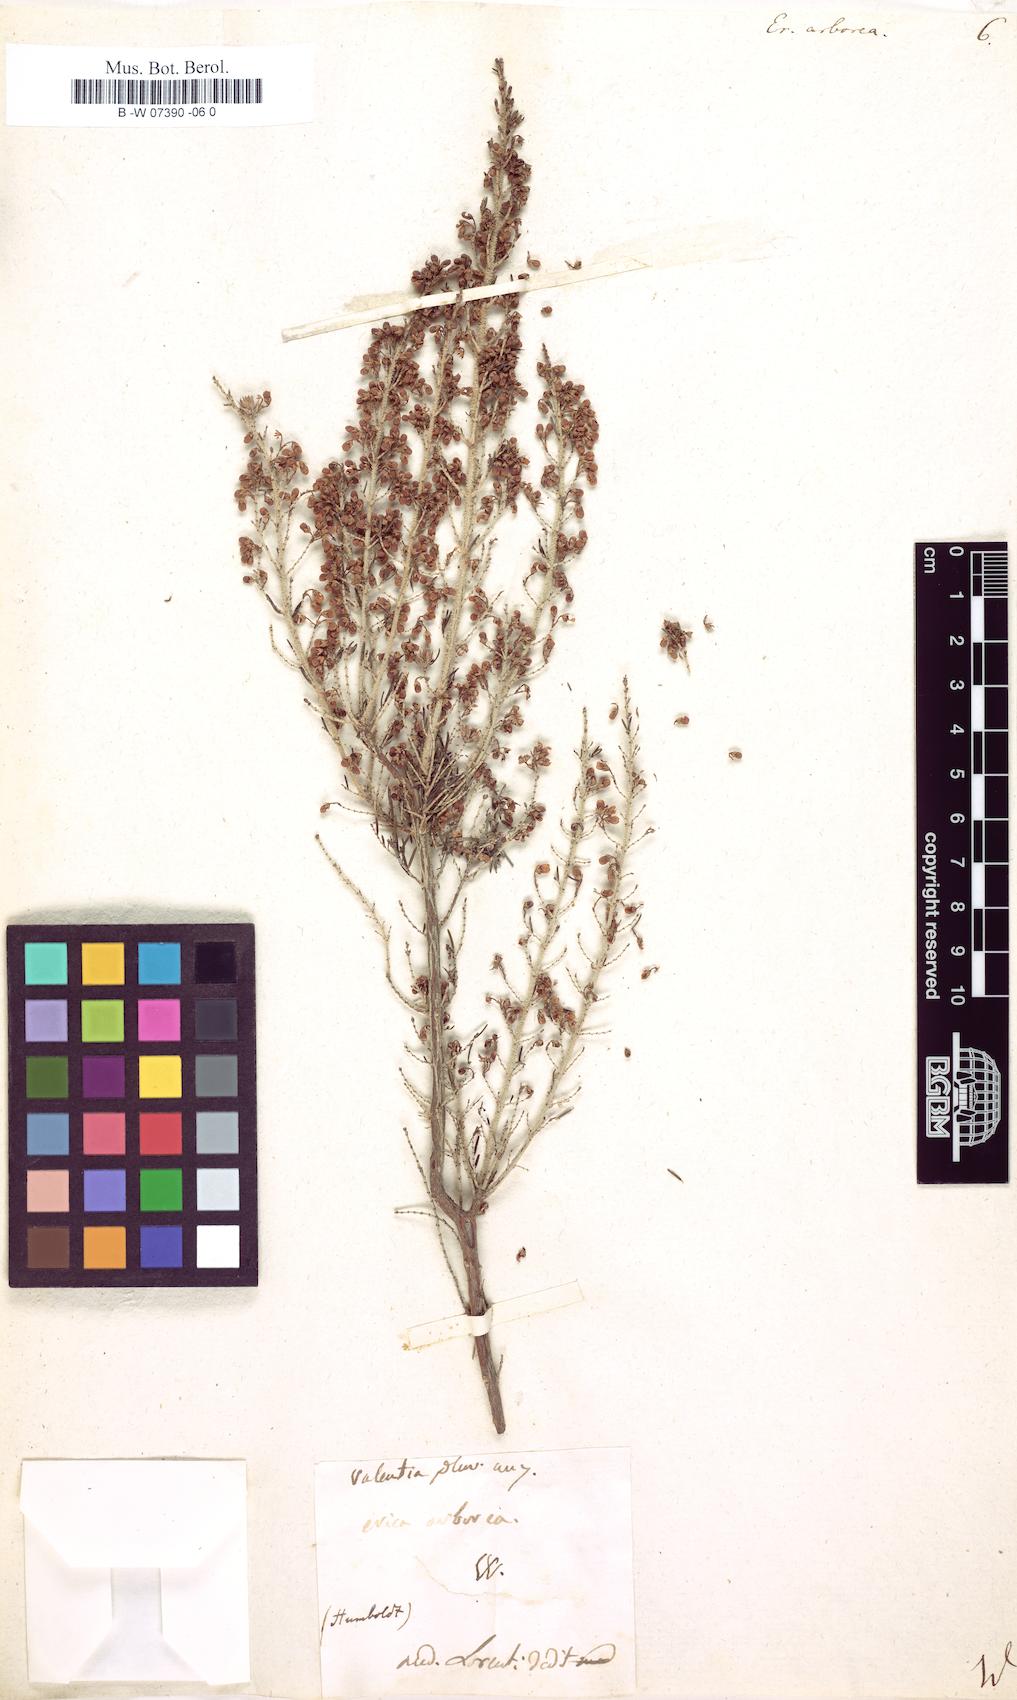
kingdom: Plantae
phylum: Tracheophyta
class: Magnoliopsida
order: Ericales
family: Ericaceae
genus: Erica
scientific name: Erica arborea
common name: Tree heath
